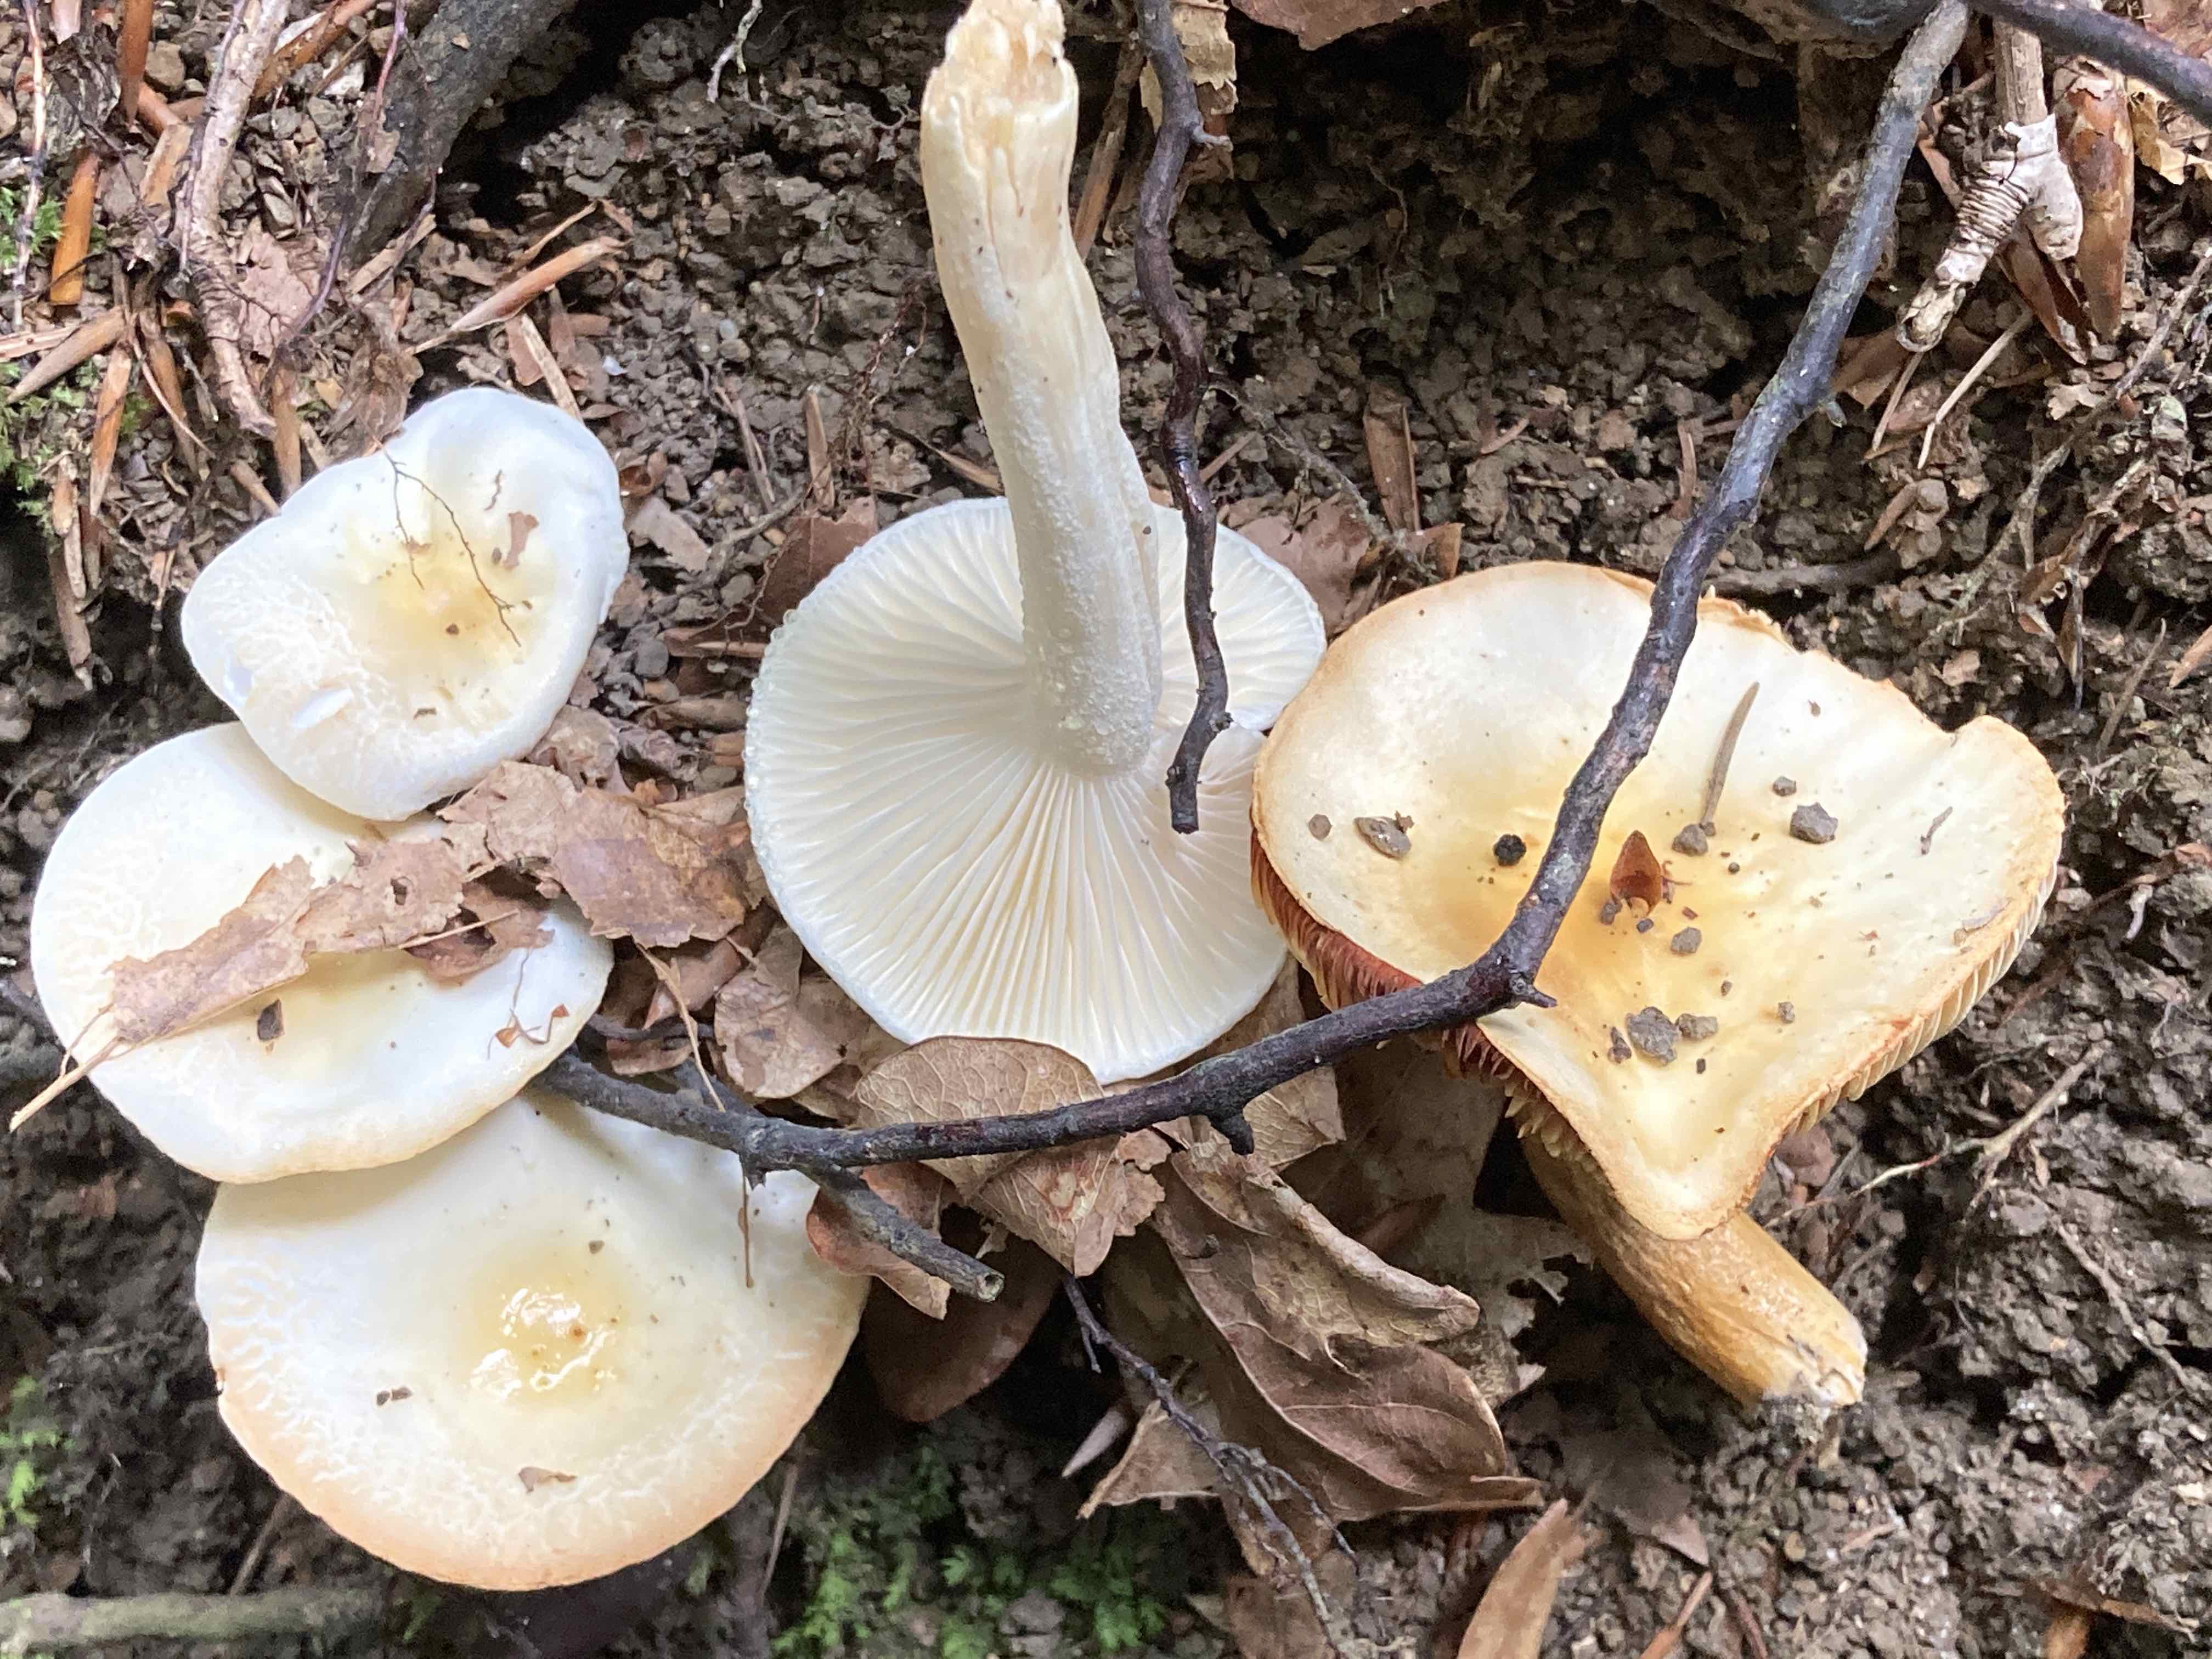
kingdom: Fungi
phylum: Basidiomycota
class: Agaricomycetes
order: Agaricales
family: Hygrophoraceae
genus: Hygrophorus
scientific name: Hygrophorus
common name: sneglehat
